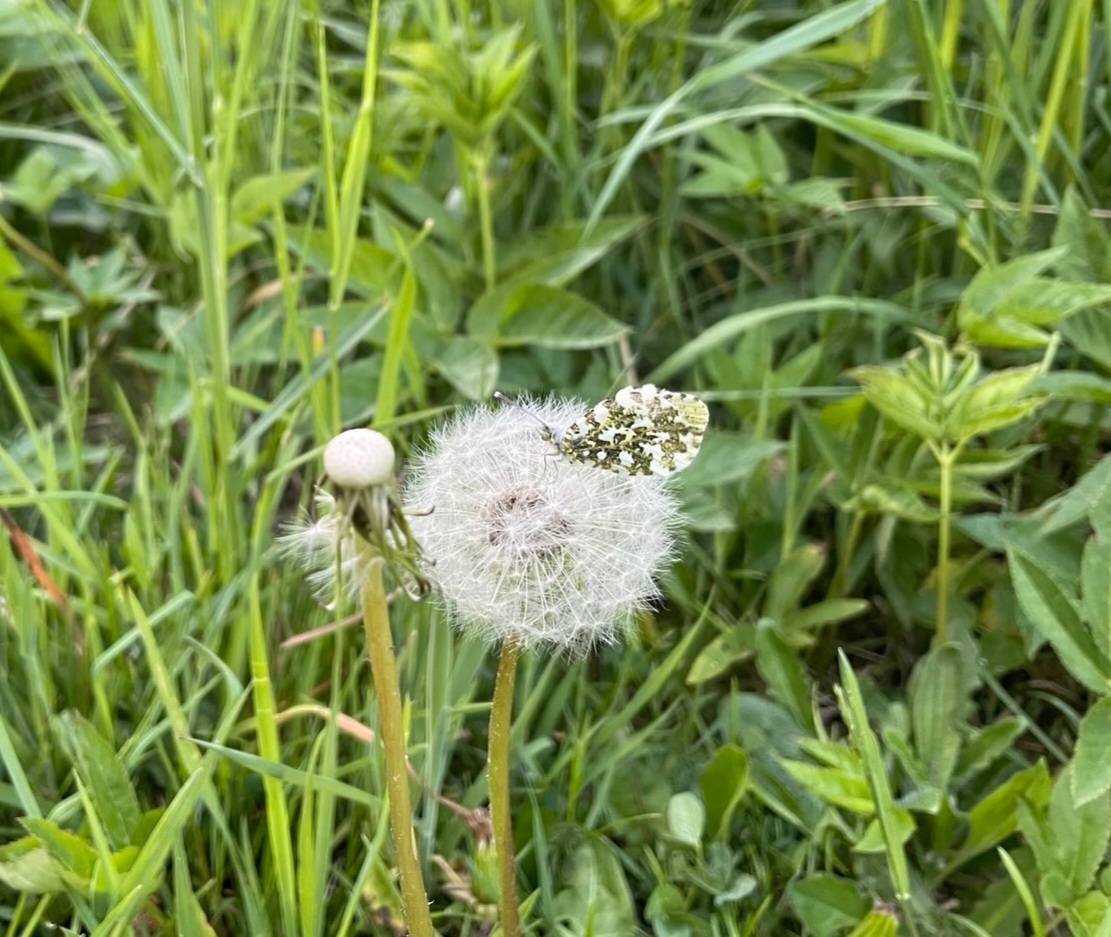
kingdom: Animalia
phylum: Arthropoda
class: Insecta
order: Lepidoptera
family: Pieridae
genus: Anthocharis
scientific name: Anthocharis cardamines
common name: Aurora
